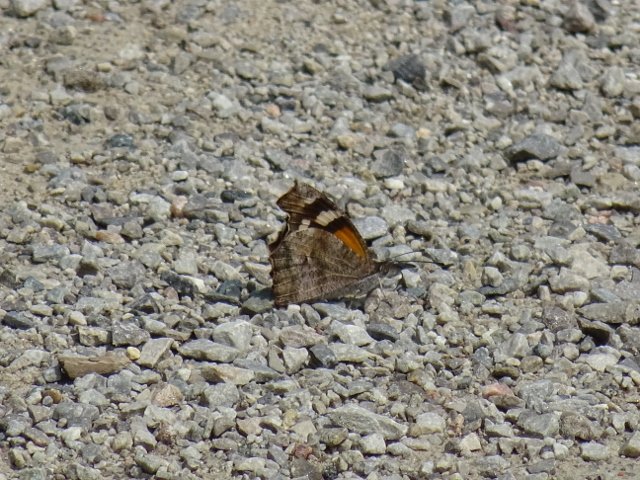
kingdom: Animalia
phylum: Arthropoda
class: Insecta
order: Lepidoptera
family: Nymphalidae
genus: Libytheana
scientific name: Libytheana carinenta
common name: American Snout
